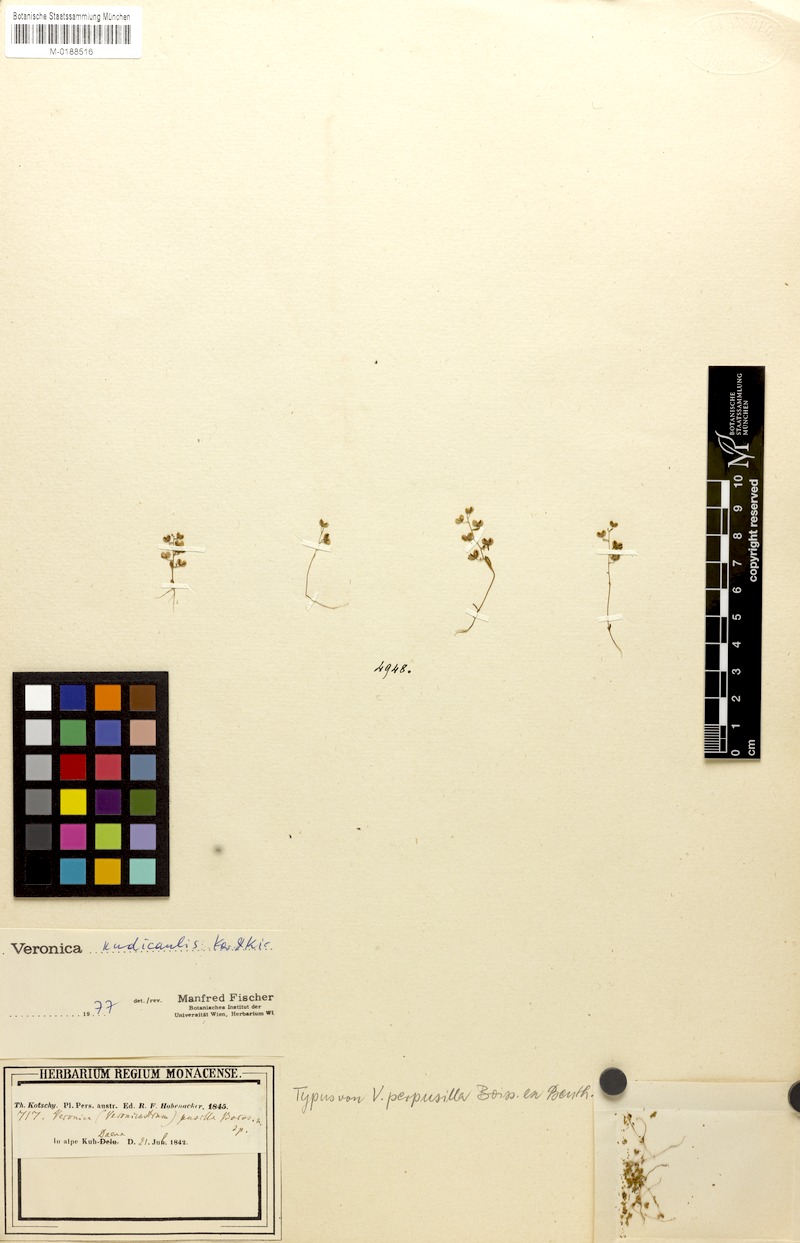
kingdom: Plantae
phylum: Tracheophyta
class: Magnoliopsida
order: Lamiales
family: Plantaginaceae
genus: Veronica
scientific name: Veronica hispidula
